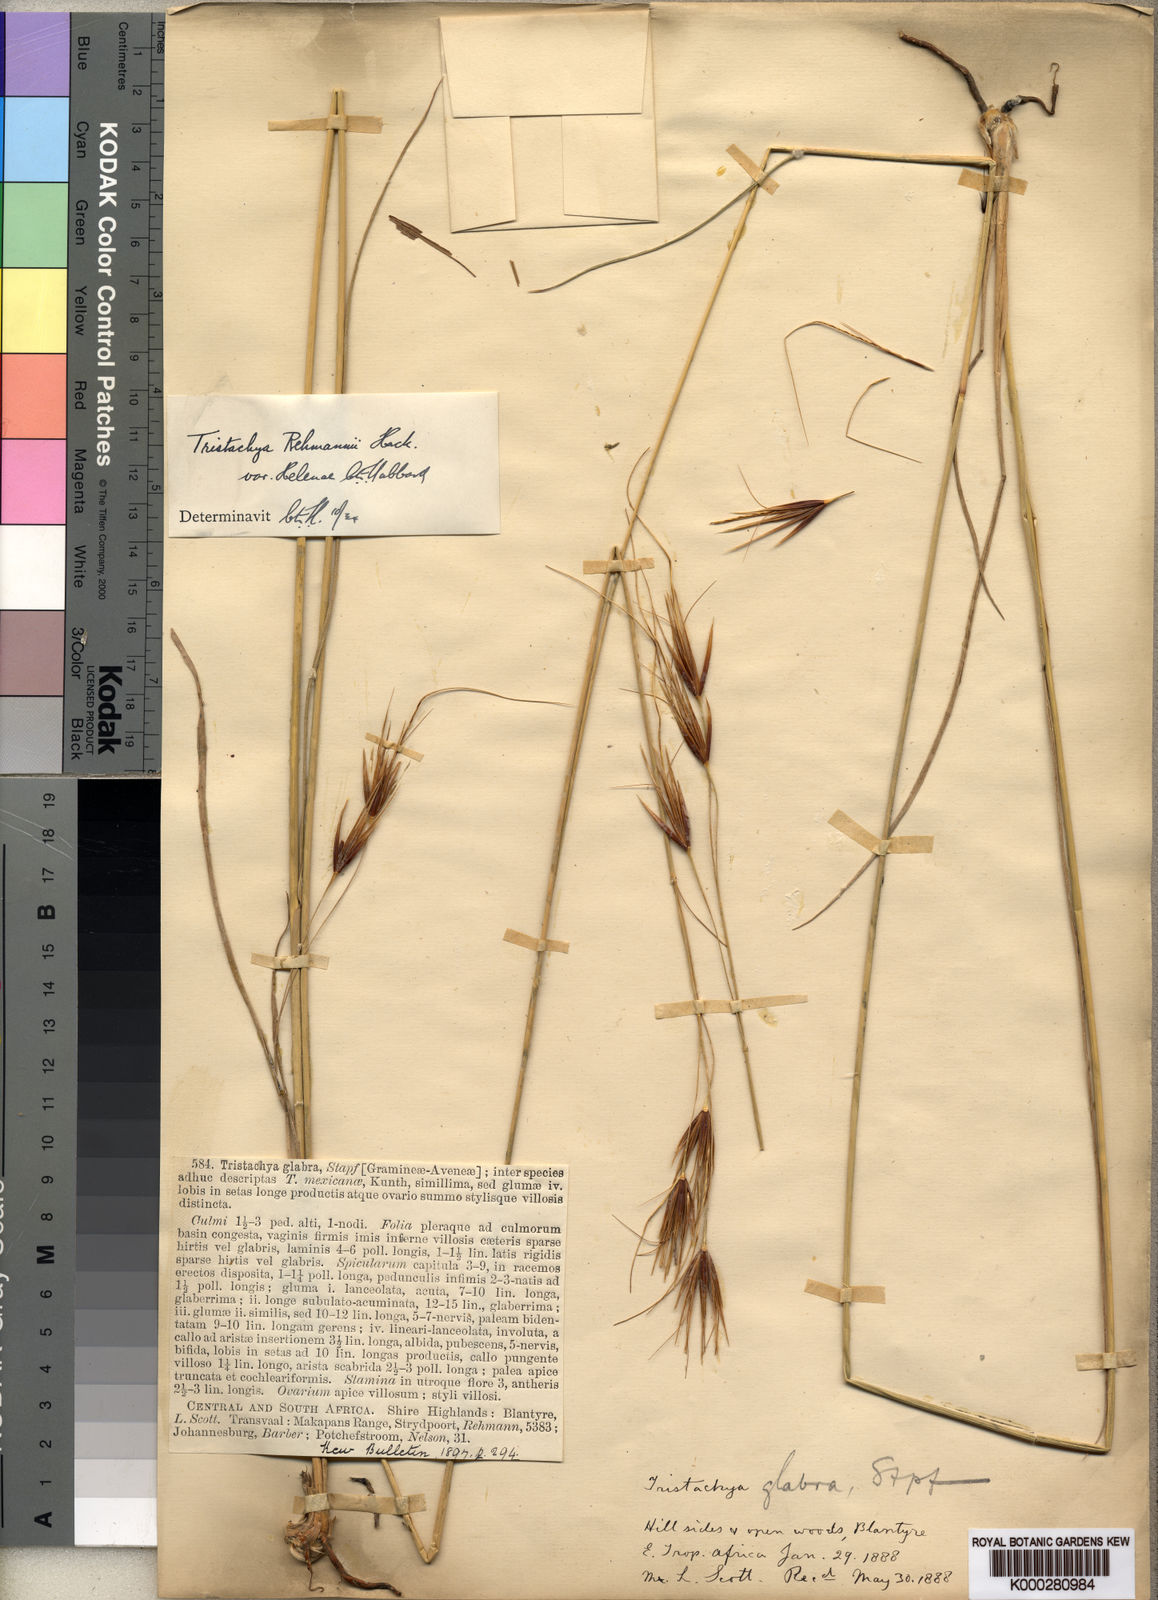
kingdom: Plantae
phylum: Tracheophyta
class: Liliopsida
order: Poales
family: Poaceae
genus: Tristachya
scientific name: Tristachya
